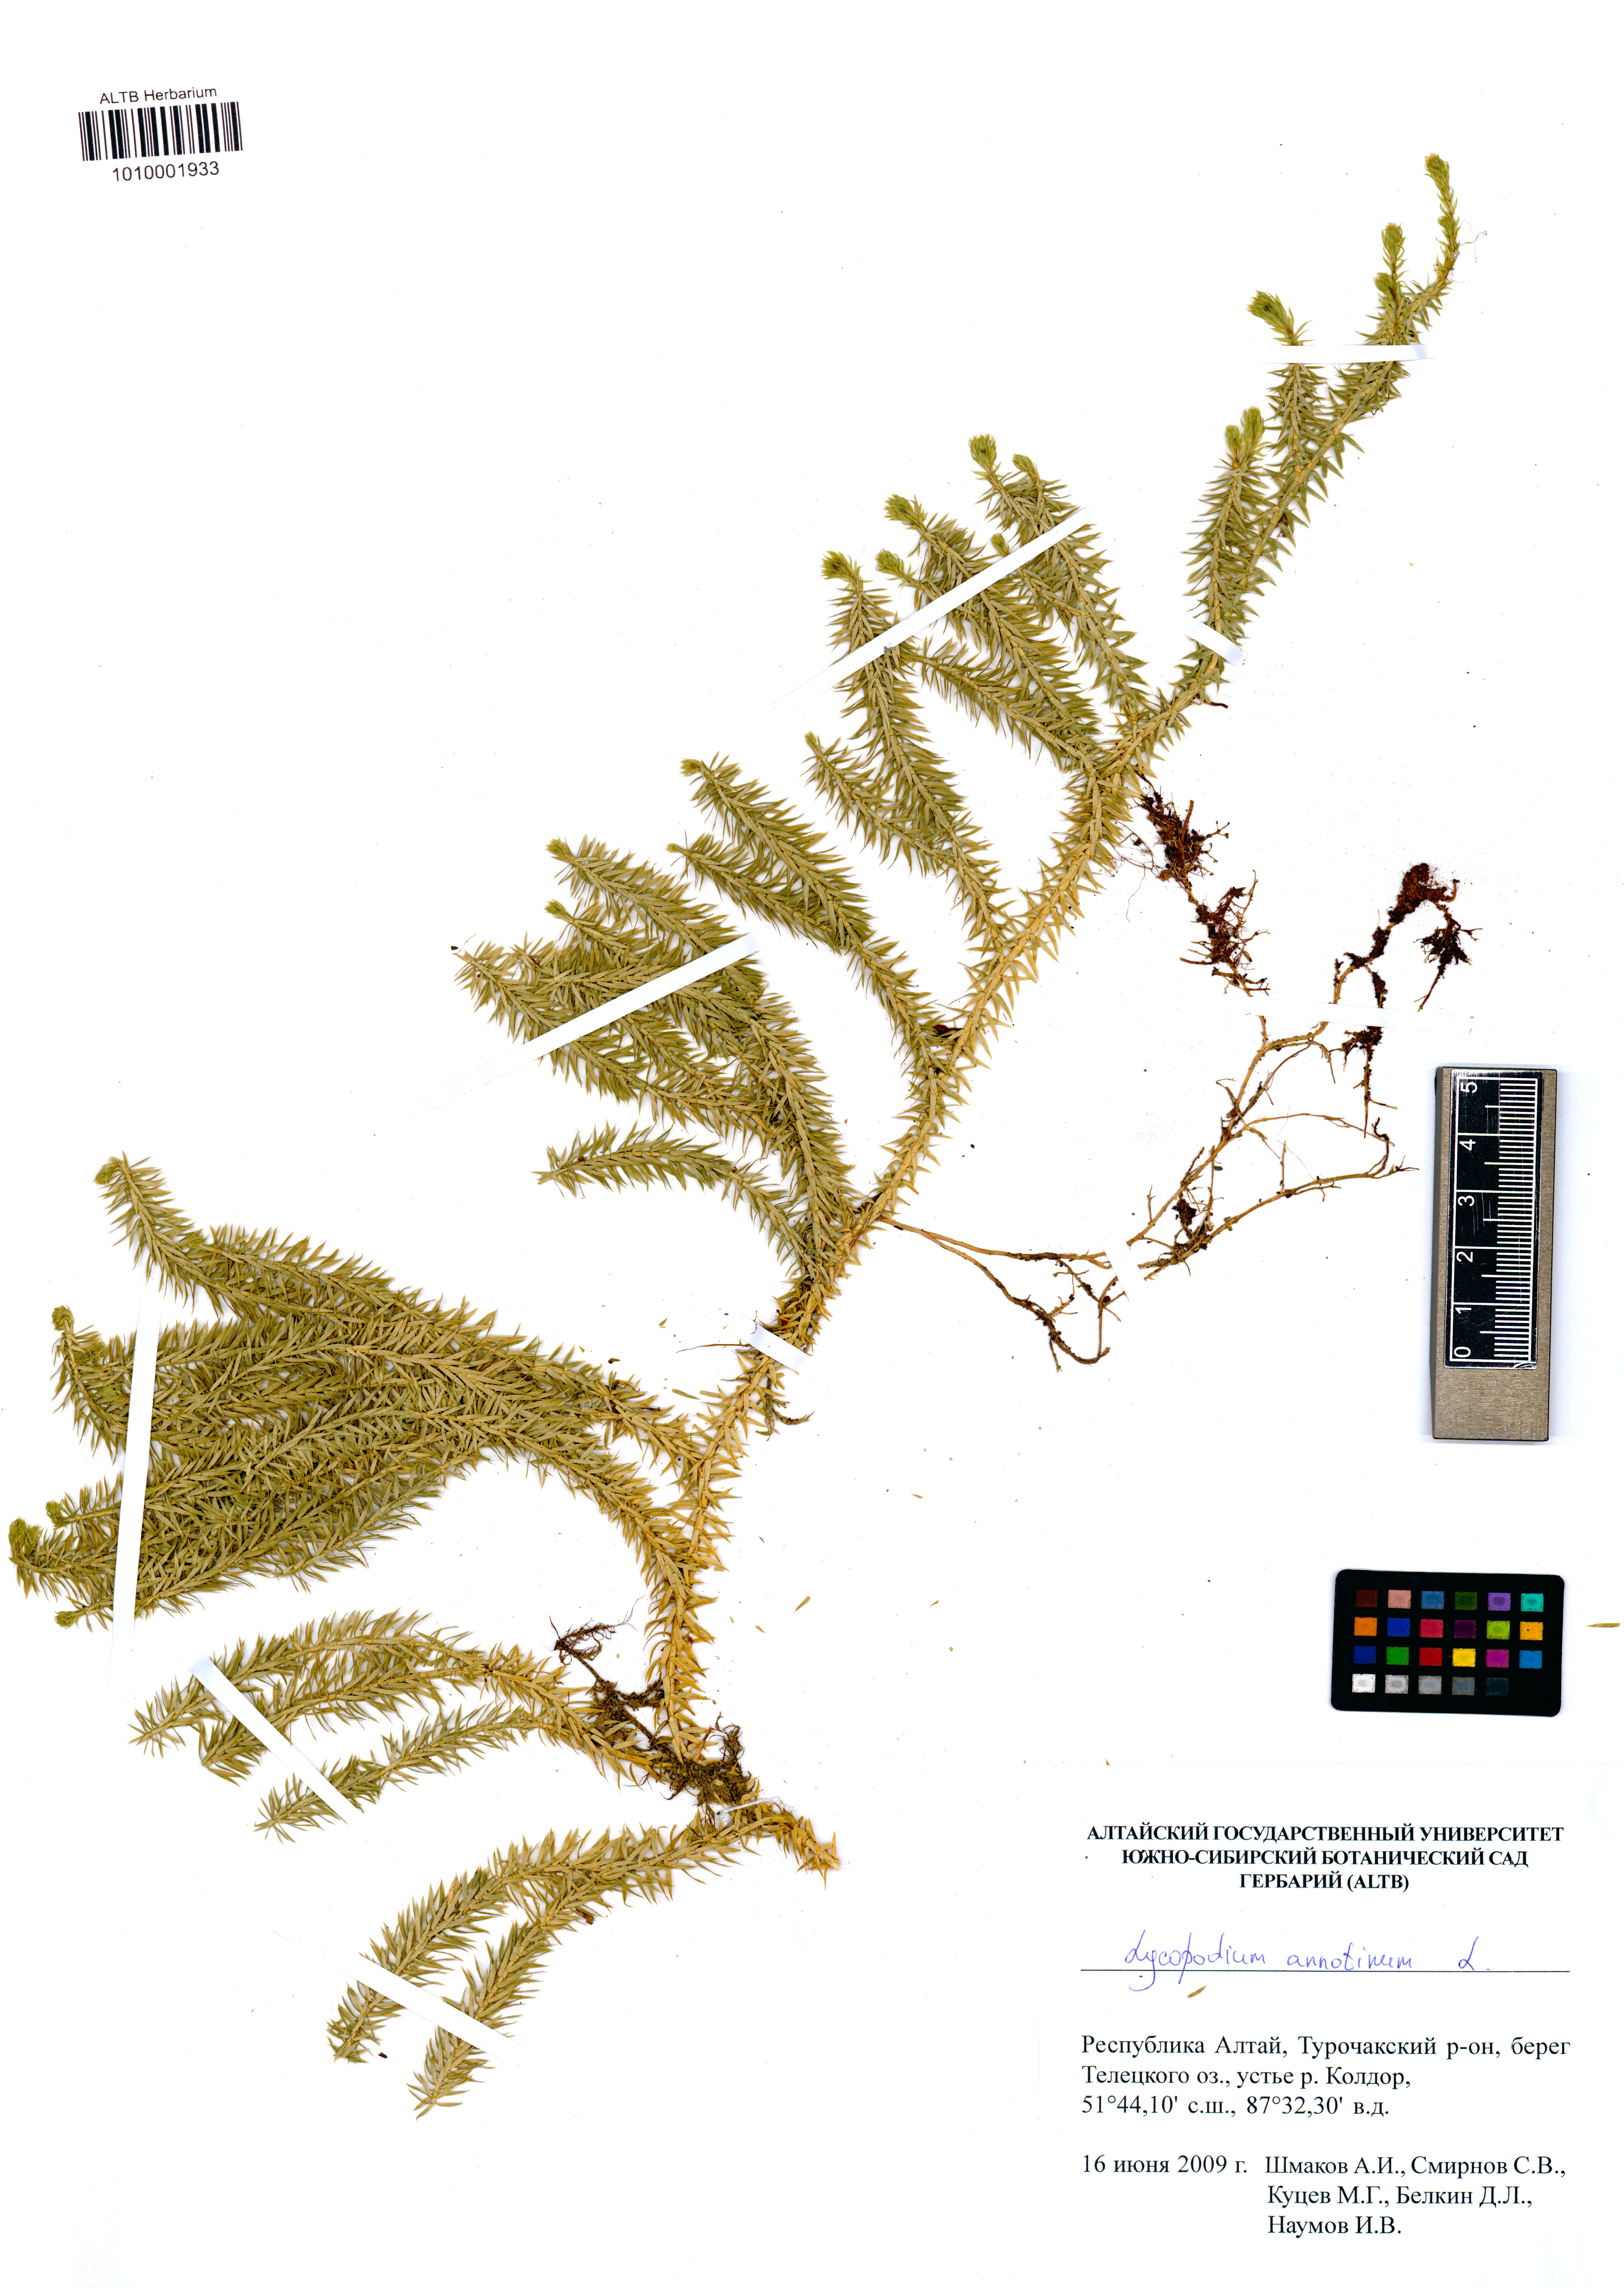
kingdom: Plantae
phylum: Tracheophyta
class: Lycopodiopsida
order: Lycopodiales
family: Lycopodiaceae
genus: Spinulum
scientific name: Spinulum annotinum
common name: Interrupted club-moss
